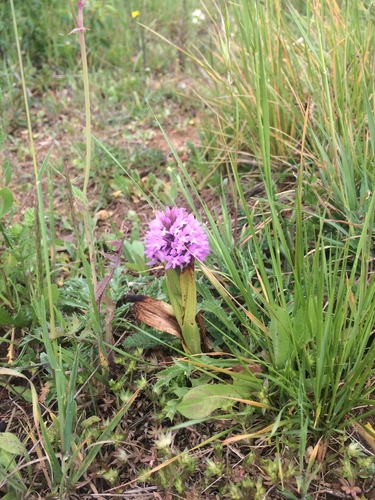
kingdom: Plantae
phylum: Tracheophyta
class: Liliopsida
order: Asparagales
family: Orchidaceae
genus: Anacamptis
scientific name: Anacamptis pyramidalis
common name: Pyramidal orchid
